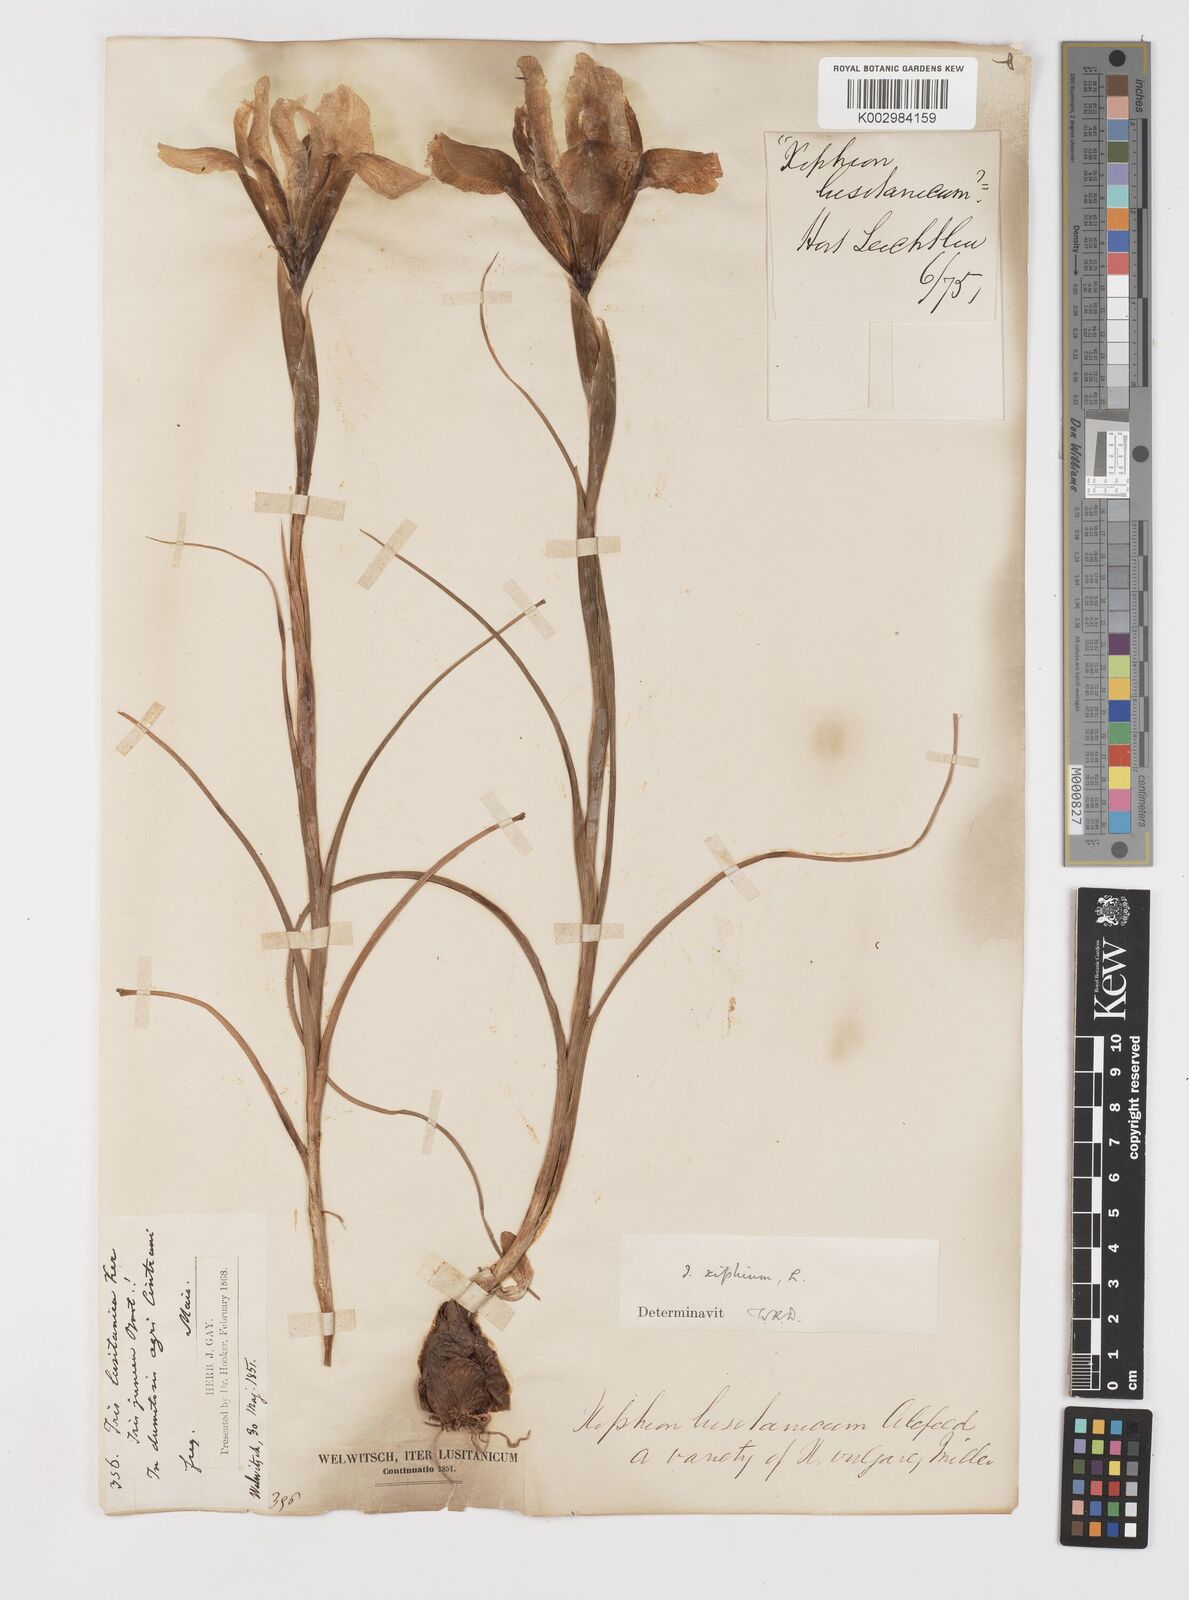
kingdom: Plantae
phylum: Tracheophyta
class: Liliopsida
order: Asparagales
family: Iridaceae
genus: Iris
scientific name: Iris xiphium
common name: Spanish iris
